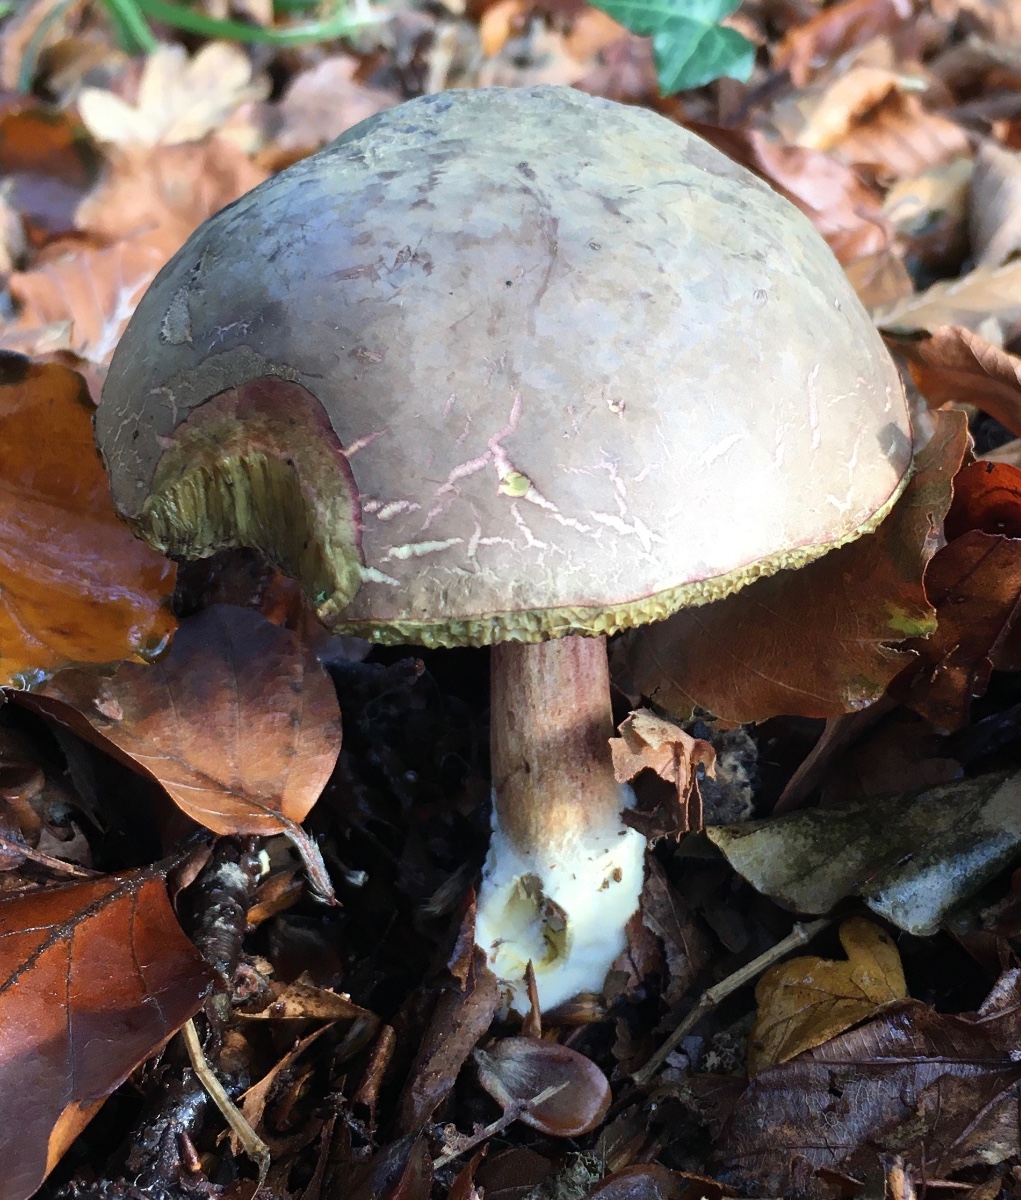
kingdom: Fungi
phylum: Basidiomycota
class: Agaricomycetes
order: Boletales
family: Boletaceae
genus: Xerocomellus
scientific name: Xerocomellus pruinatus
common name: dugget rørhat
